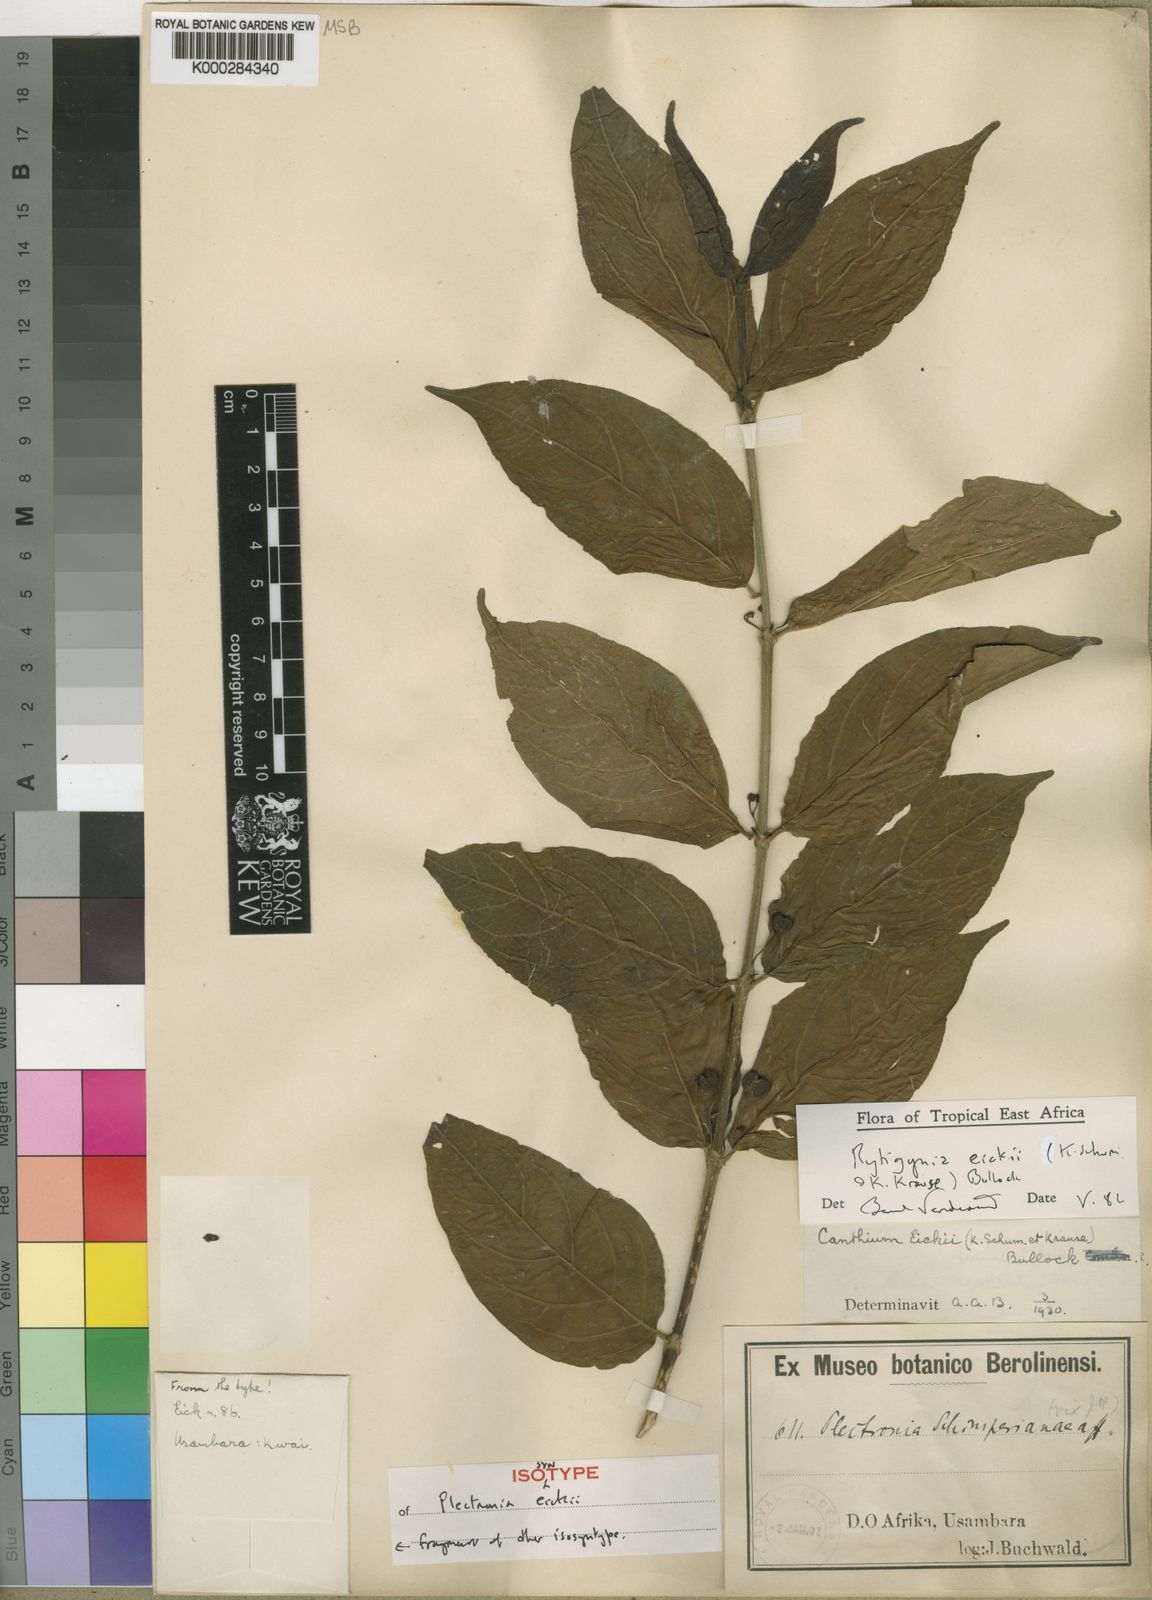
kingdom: Plantae
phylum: Tracheophyta
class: Magnoliopsida
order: Gentianales
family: Rubiaceae
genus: Rytigynia
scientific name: Rytigynia eickii
